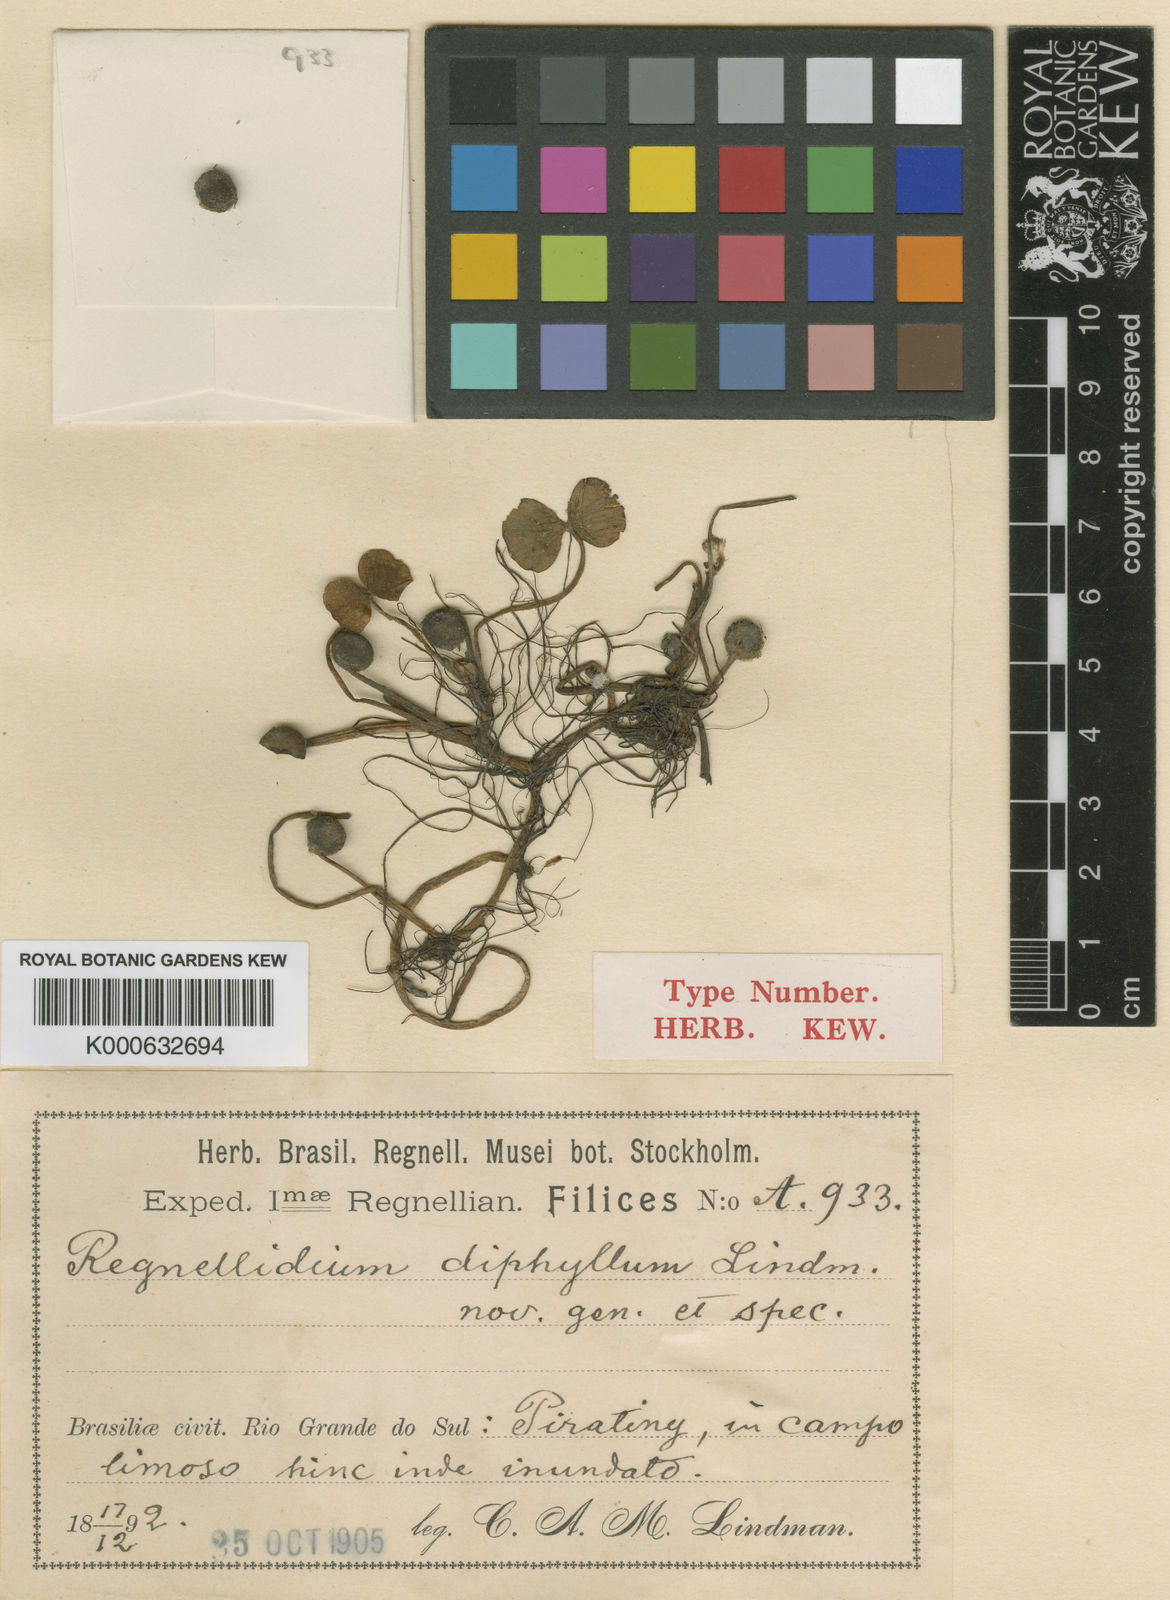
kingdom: Plantae
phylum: Tracheophyta
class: Polypodiopsida
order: Salviniales
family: Marsileaceae
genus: Regnellidium
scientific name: Regnellidium diphyllum
